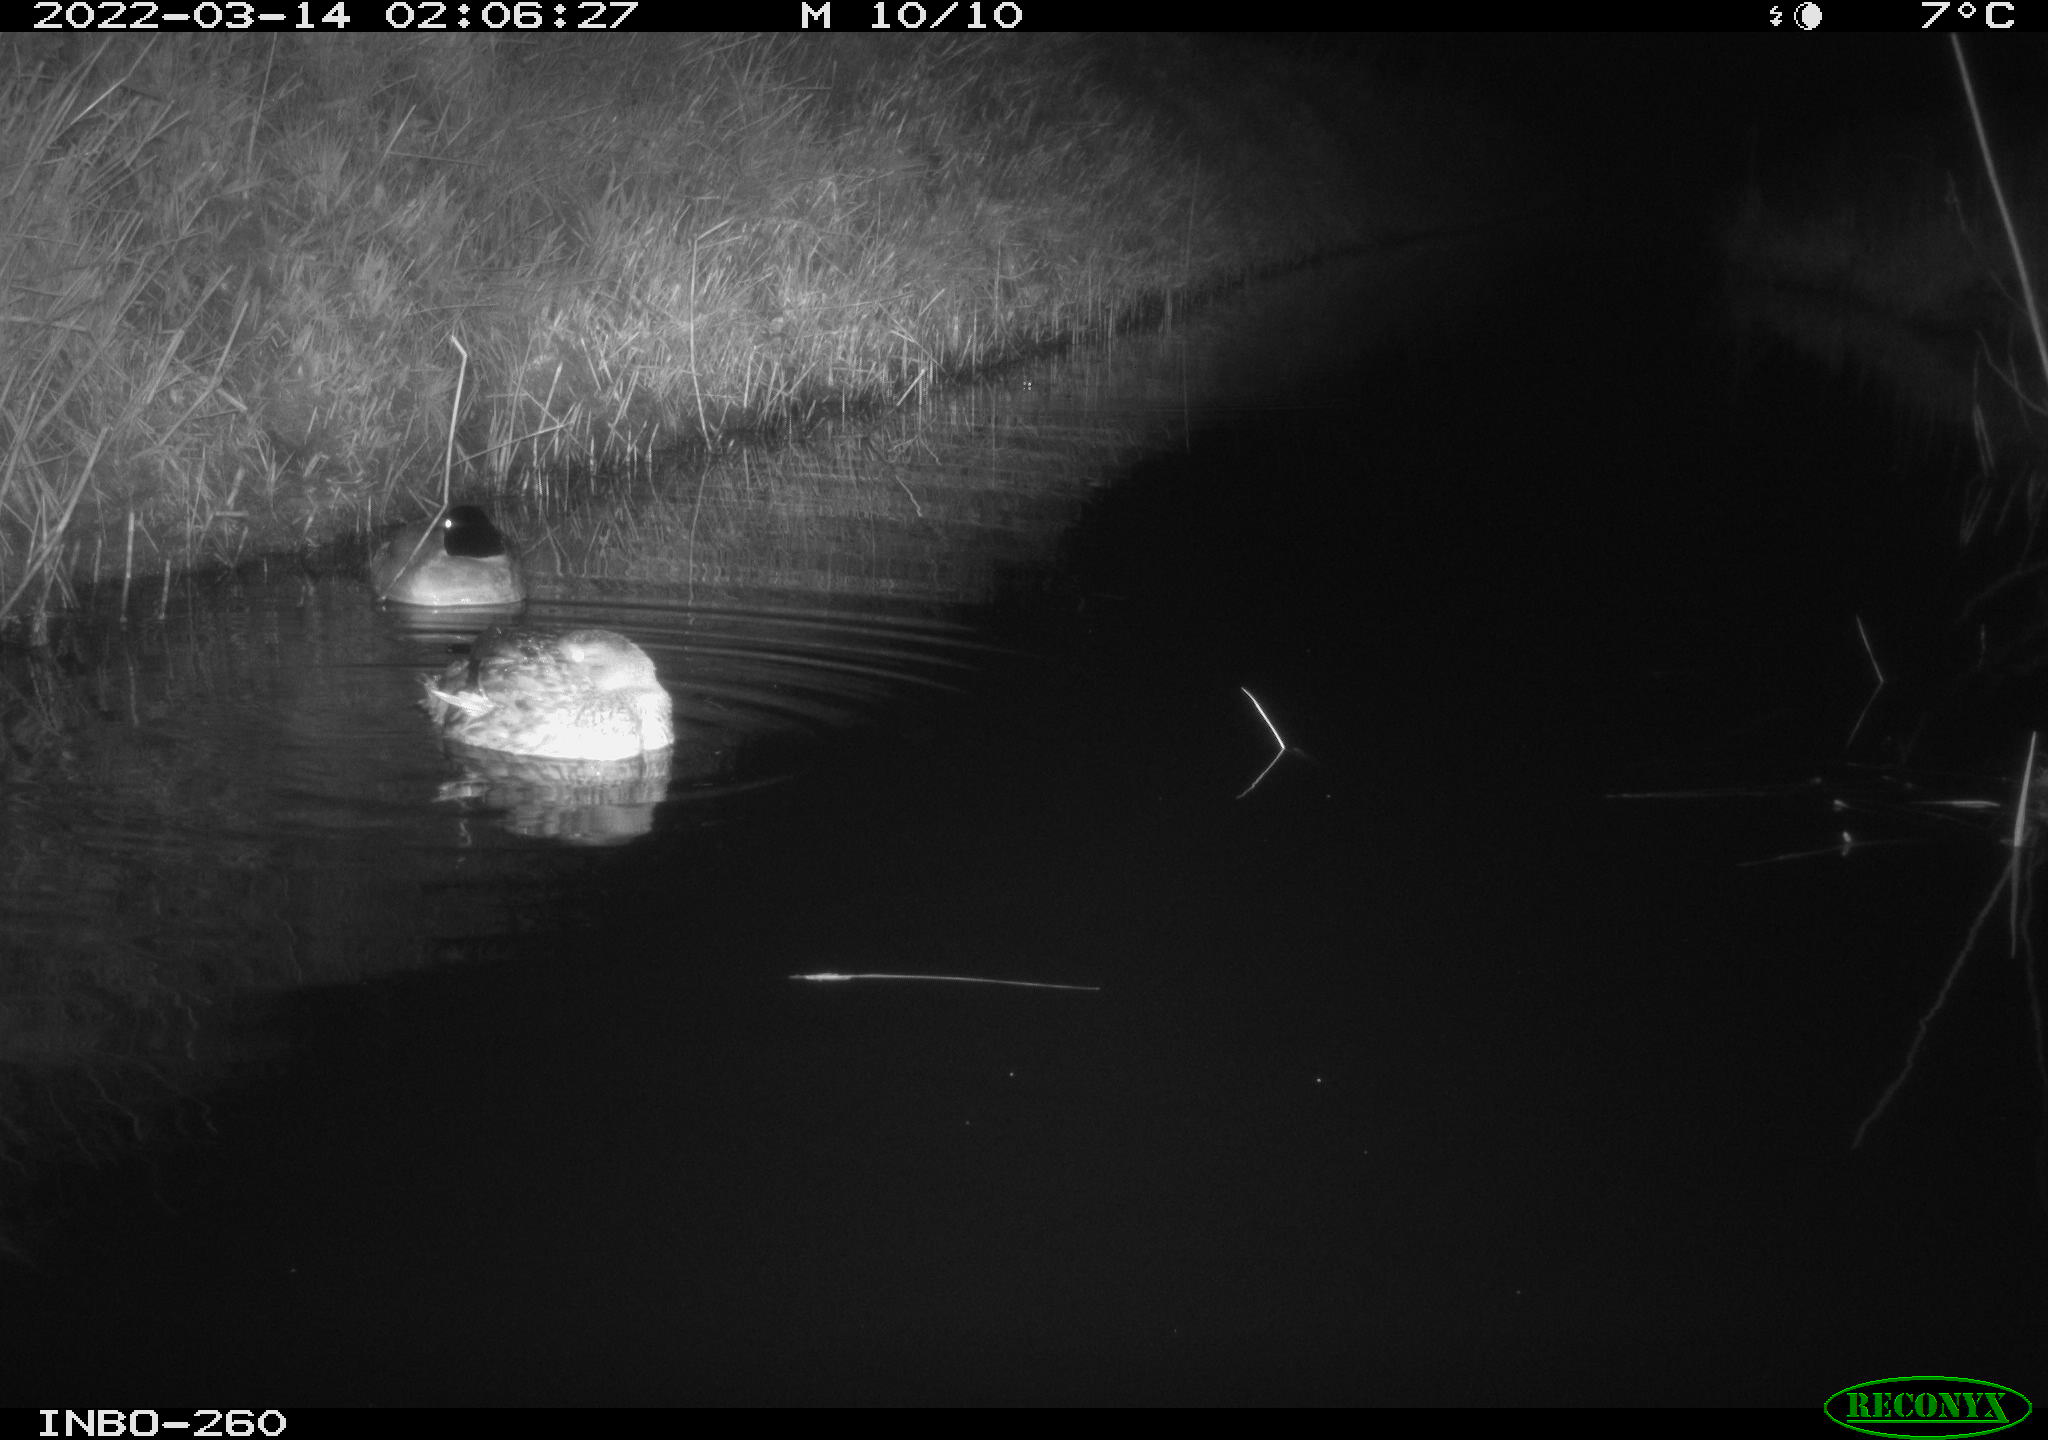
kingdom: Animalia
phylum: Chordata
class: Aves
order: Anseriformes
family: Anatidae
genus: Anas
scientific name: Anas platyrhynchos
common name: Mallard
